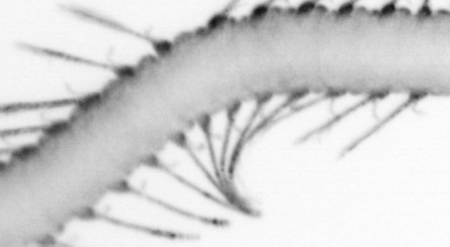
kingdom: Animalia
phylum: Arthropoda
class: Copepoda
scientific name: Copepoda
